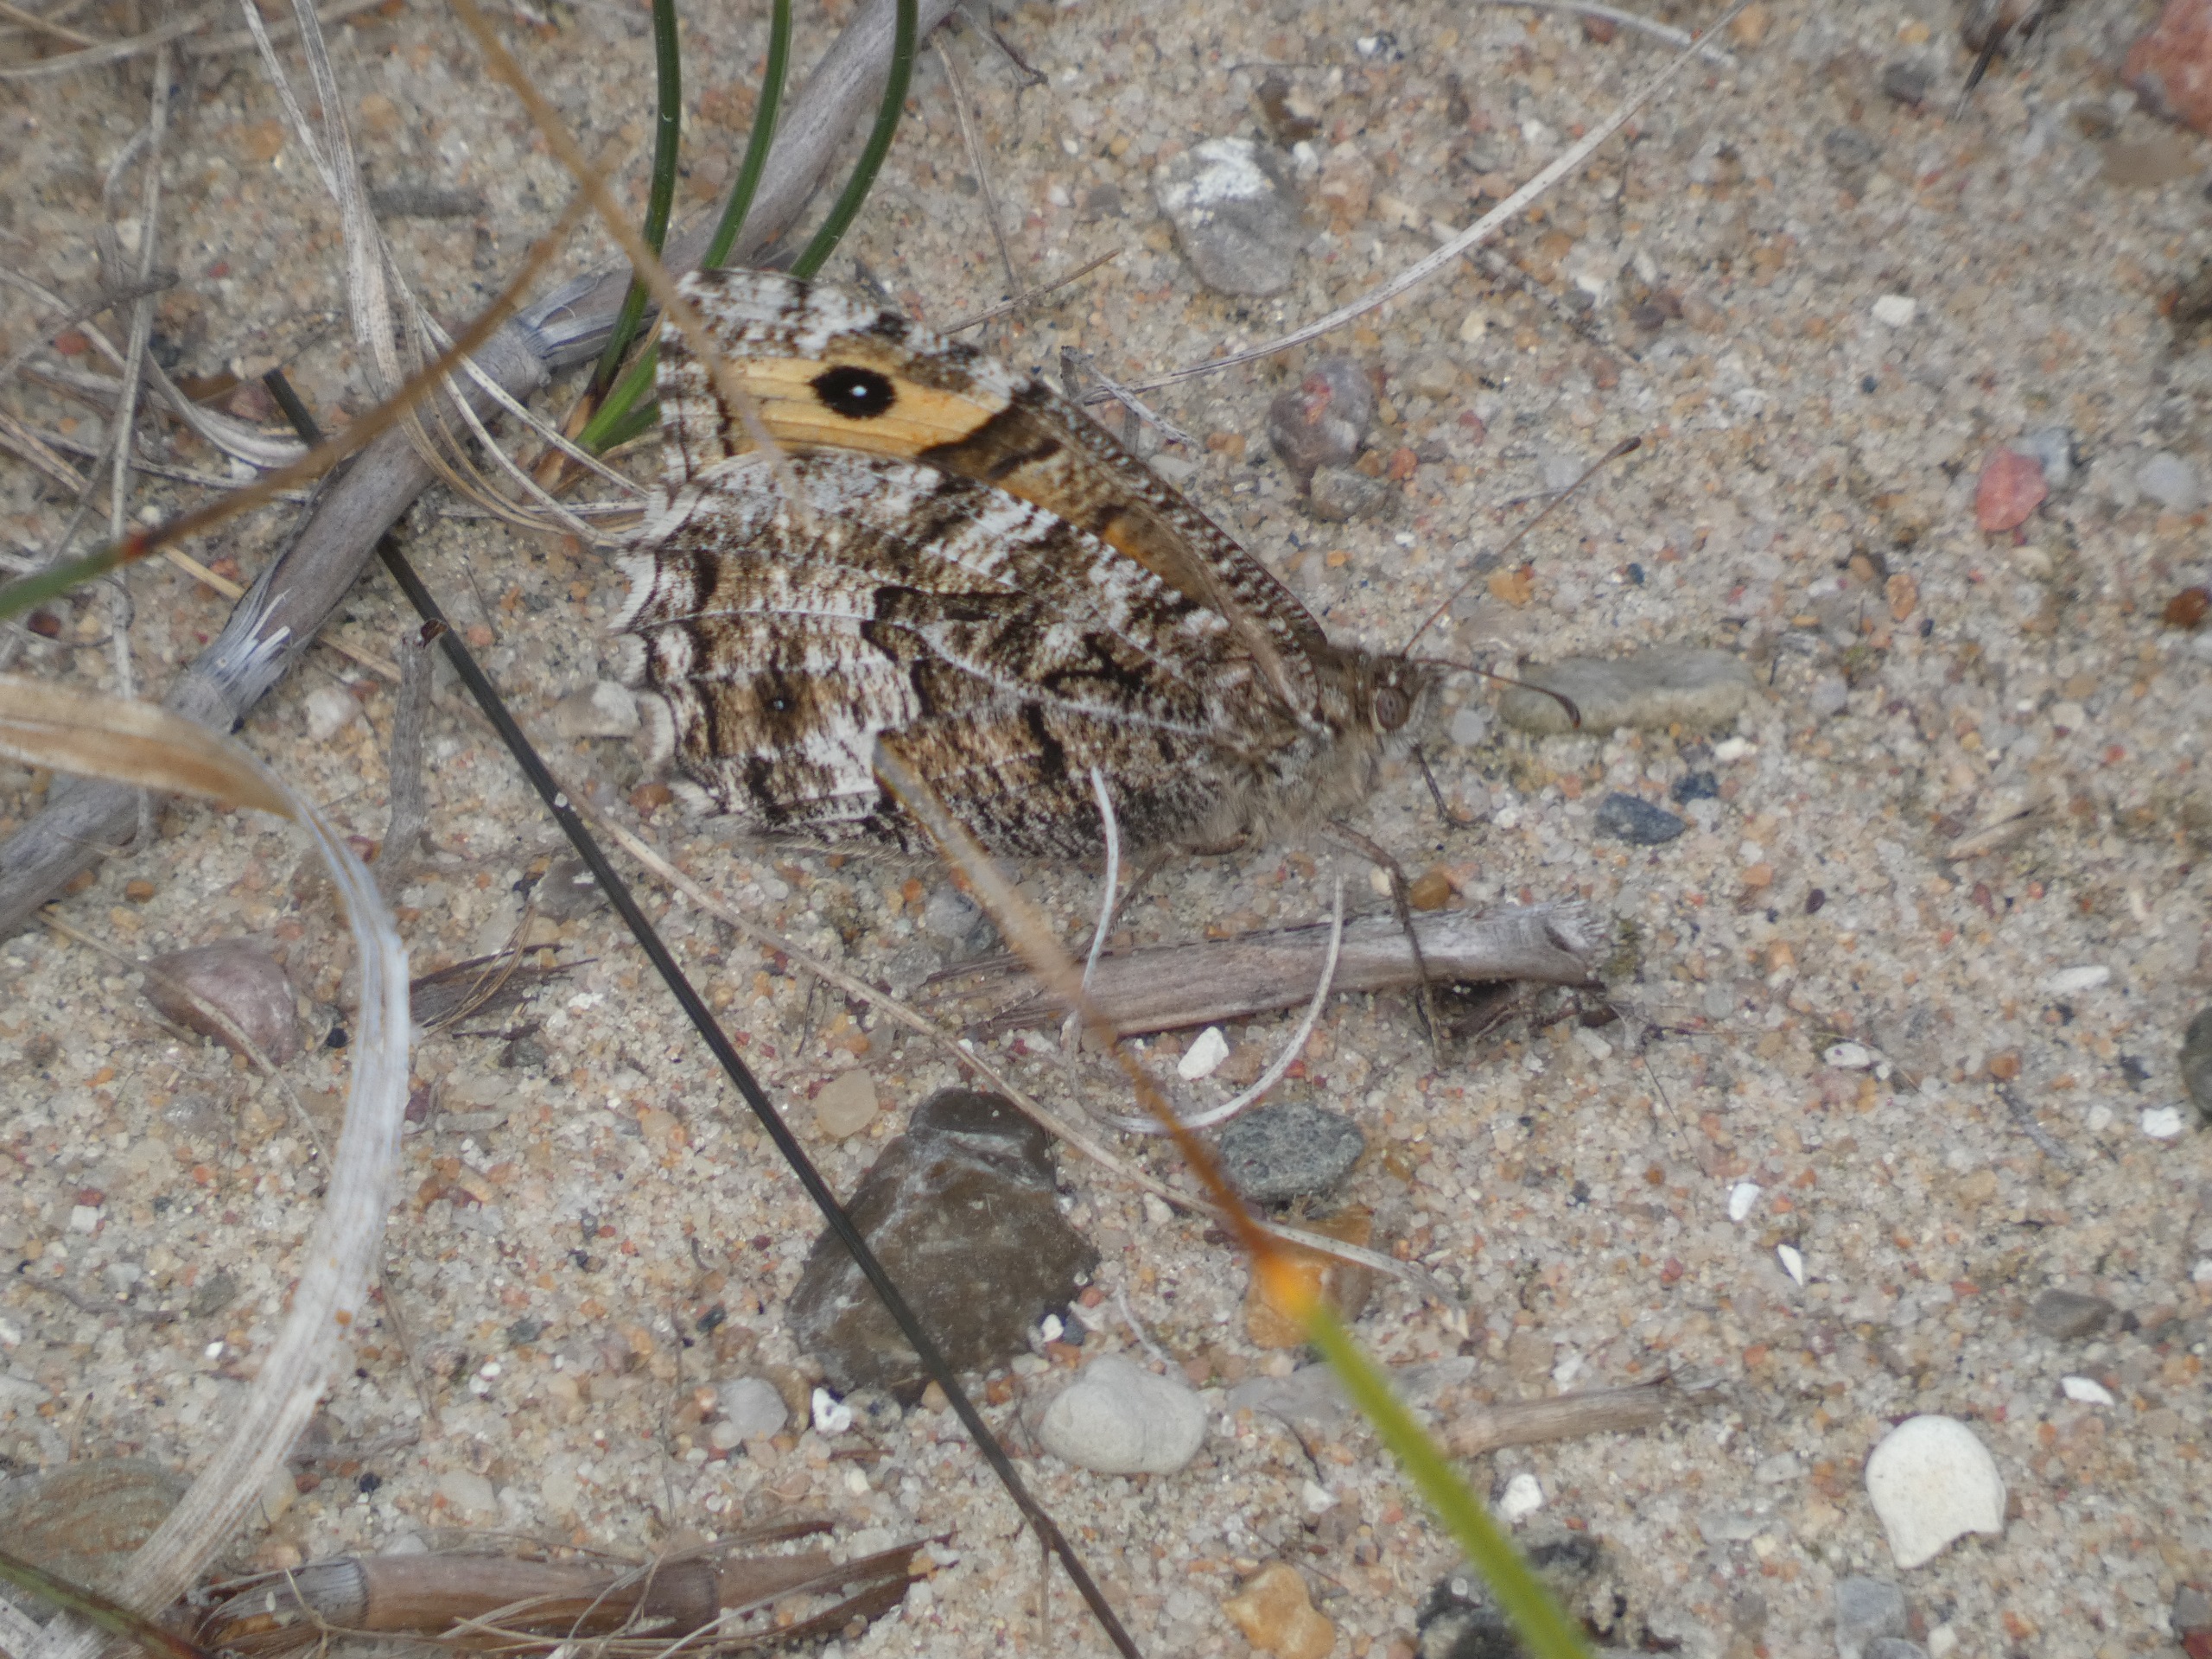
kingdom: Animalia
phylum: Arthropoda
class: Insecta
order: Lepidoptera
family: Nymphalidae
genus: Hipparchia
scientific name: Hipparchia semele
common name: Sandrandøje
